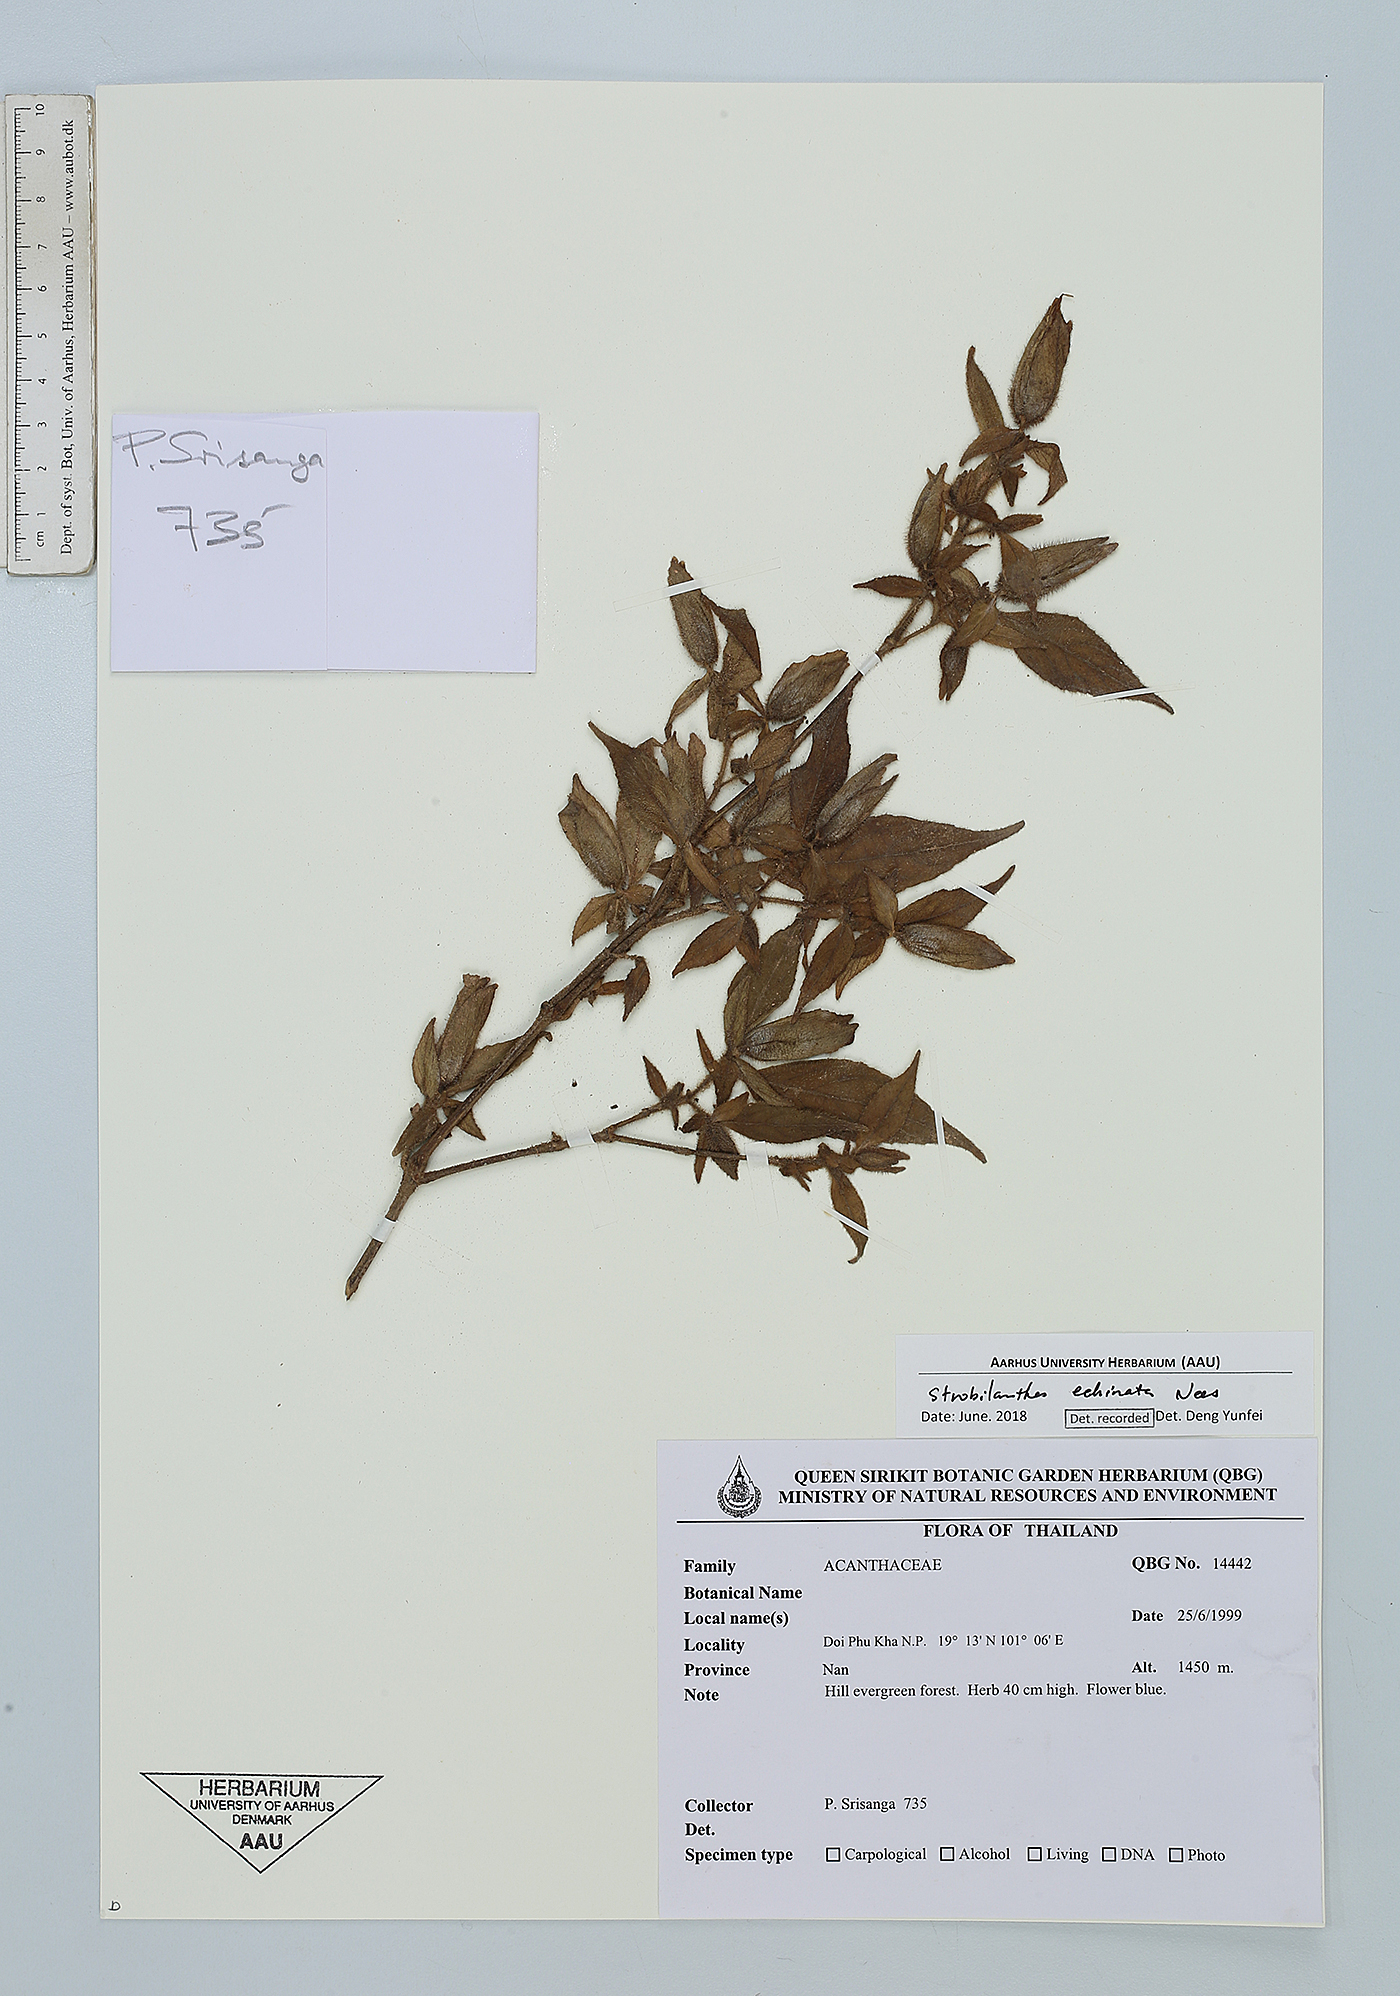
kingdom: Plantae
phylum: Tracheophyta
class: Magnoliopsida
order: Lamiales
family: Acanthaceae
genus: Strobilanthes
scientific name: Strobilanthes echinata
